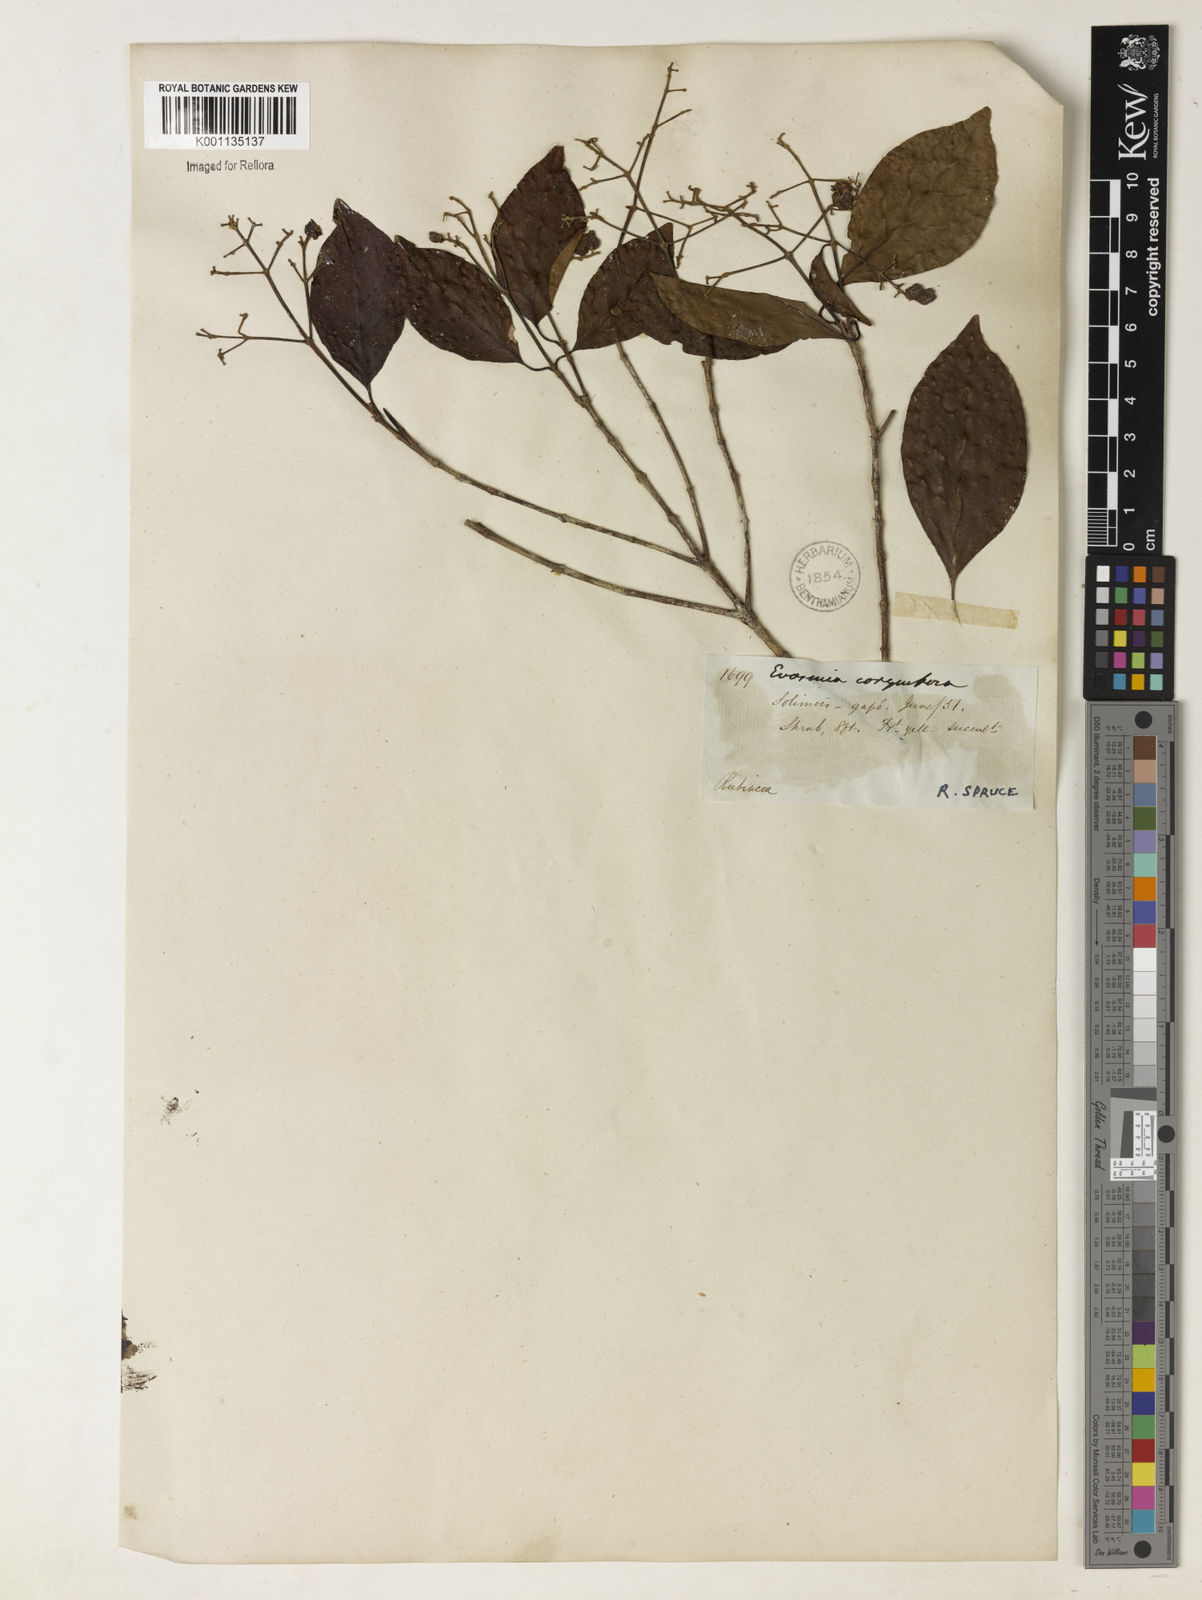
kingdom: Plantae
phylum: Tracheophyta
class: Magnoliopsida
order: Gentianales
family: Rubiaceae
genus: Bothriospora
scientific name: Bothriospora corymbosa
